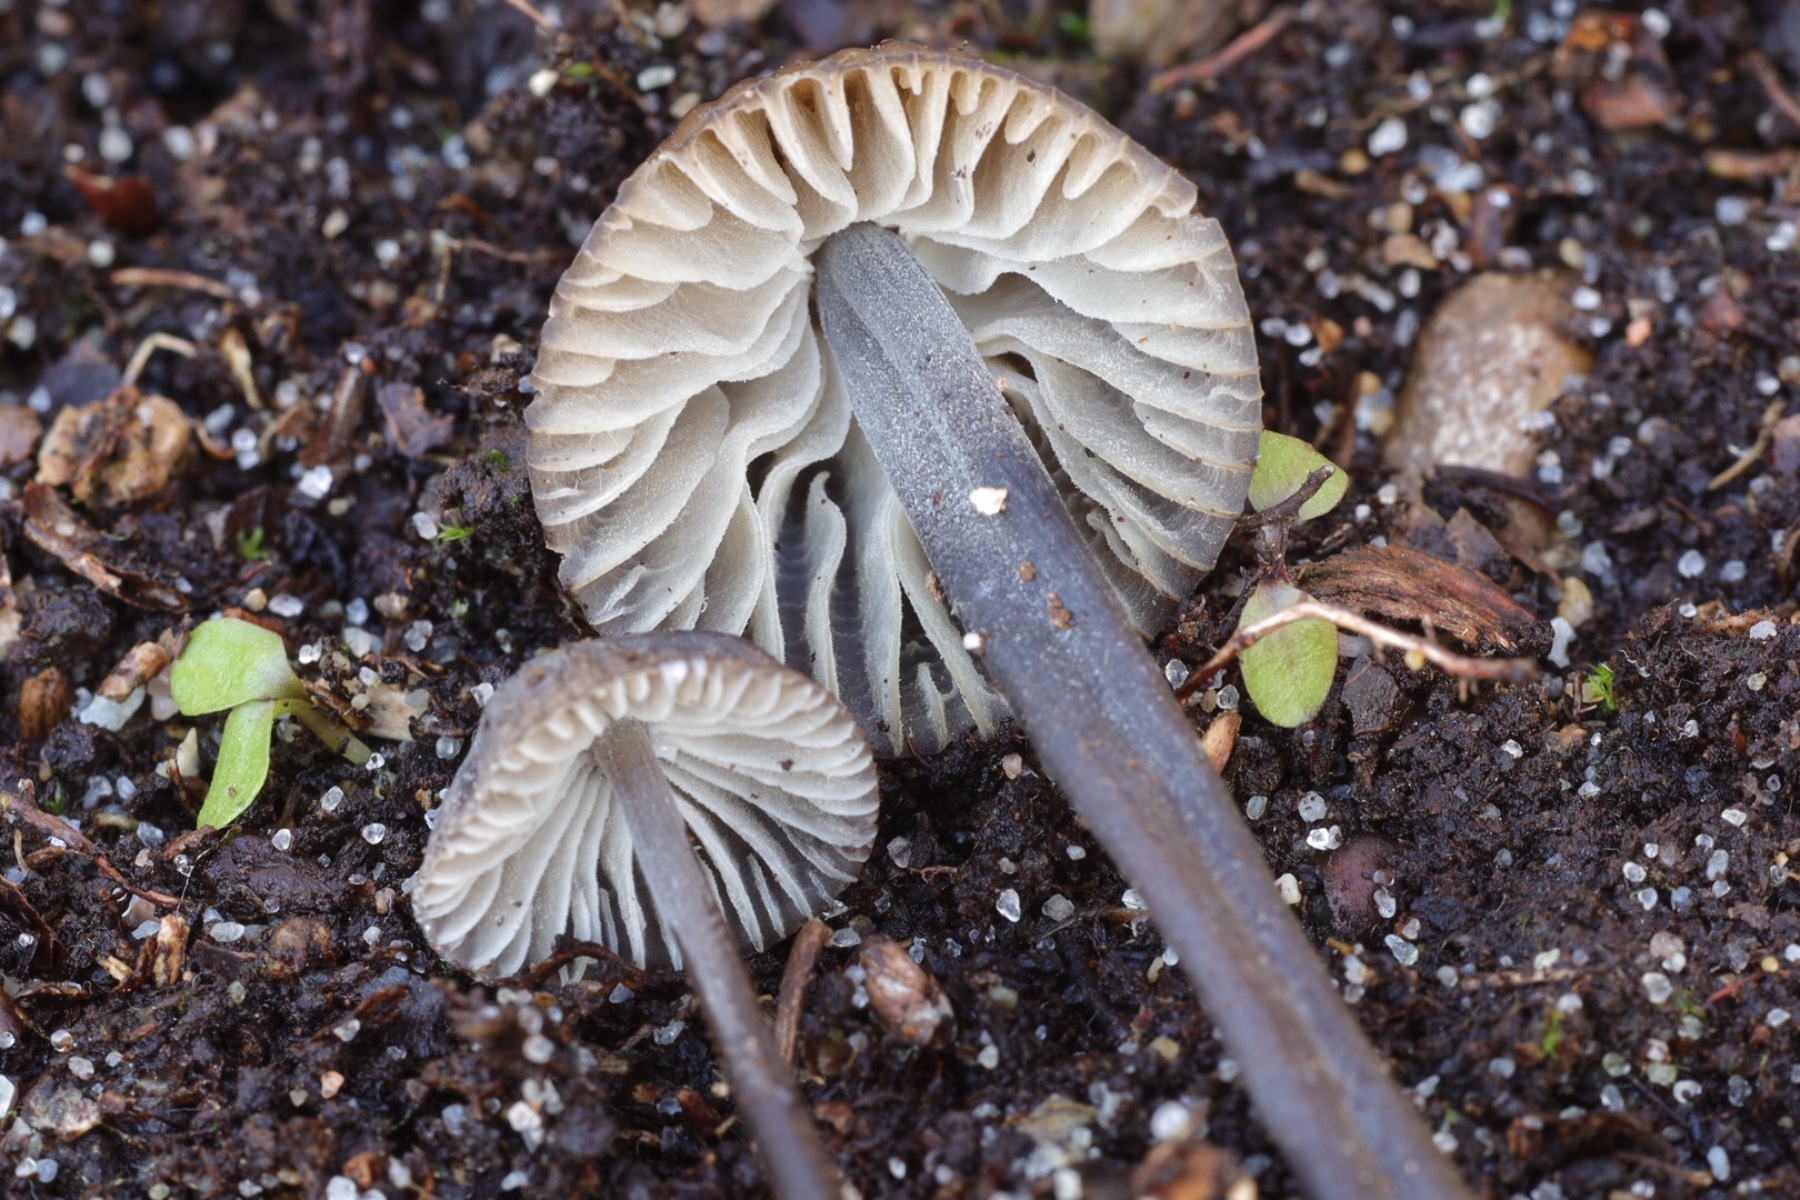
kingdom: Fungi
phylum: Basidiomycota
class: Agaricomycetes
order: Agaricales
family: Mycenaceae
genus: Mycena
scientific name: Mycena
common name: huesvamp
